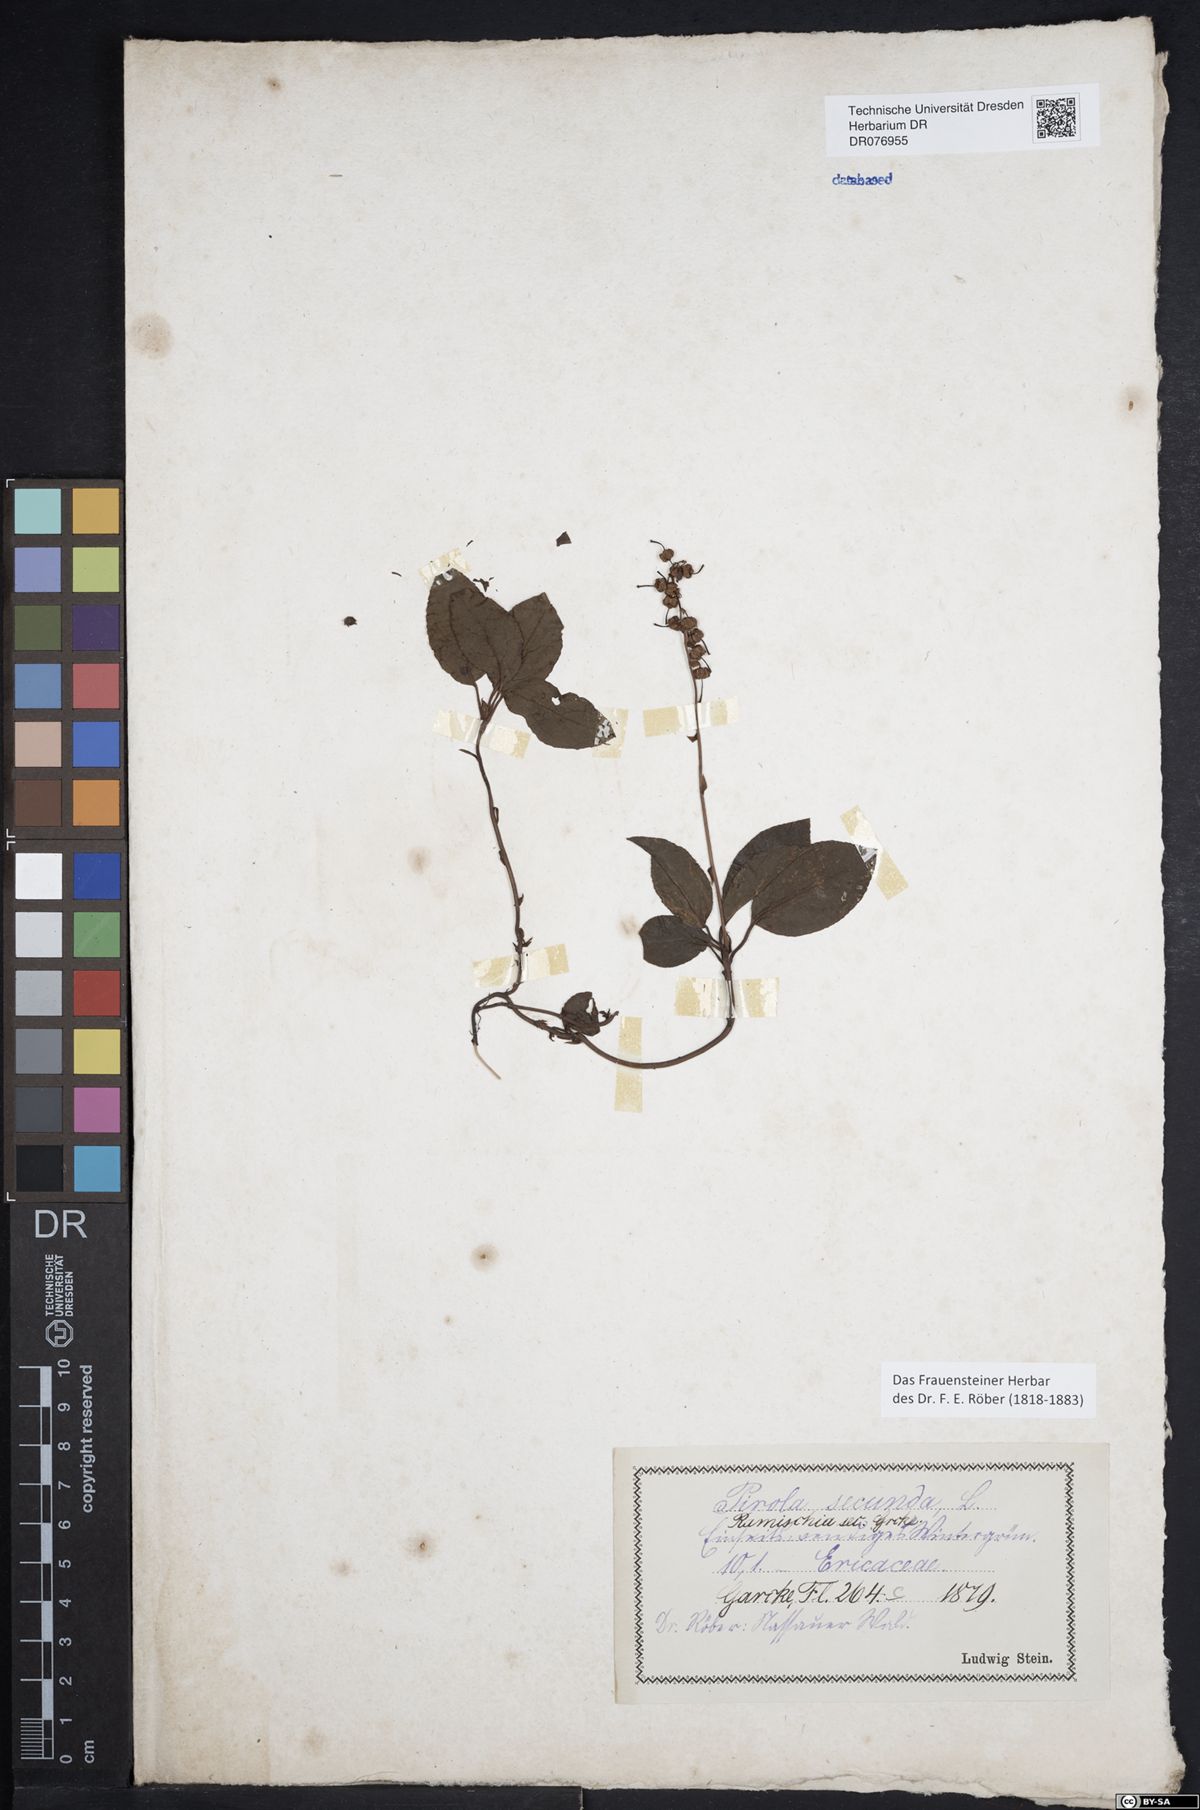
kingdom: Plantae
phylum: Tracheophyta
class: Magnoliopsida
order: Ericales
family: Ericaceae
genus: Orthilia
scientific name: Orthilia secunda
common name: One-sided orthilia
